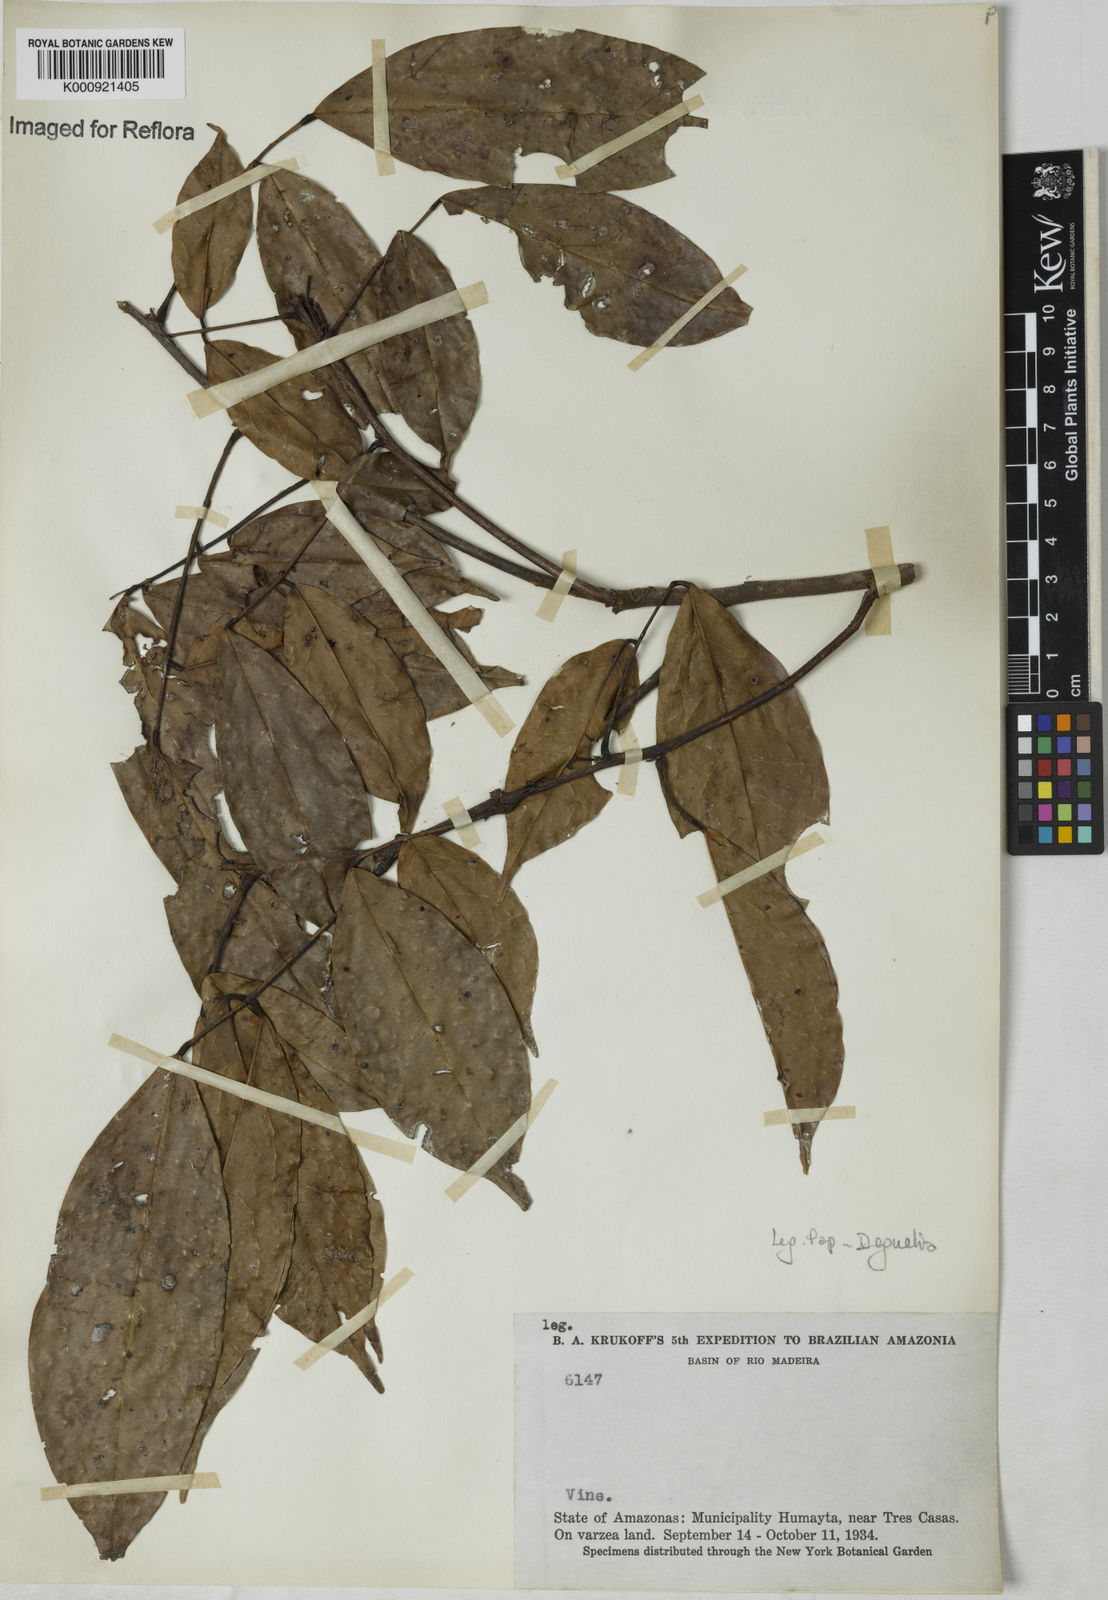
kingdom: Plantae
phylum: Tracheophyta
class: Magnoliopsida
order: Fabales
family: Fabaceae
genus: Deguelia
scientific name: Deguelia
